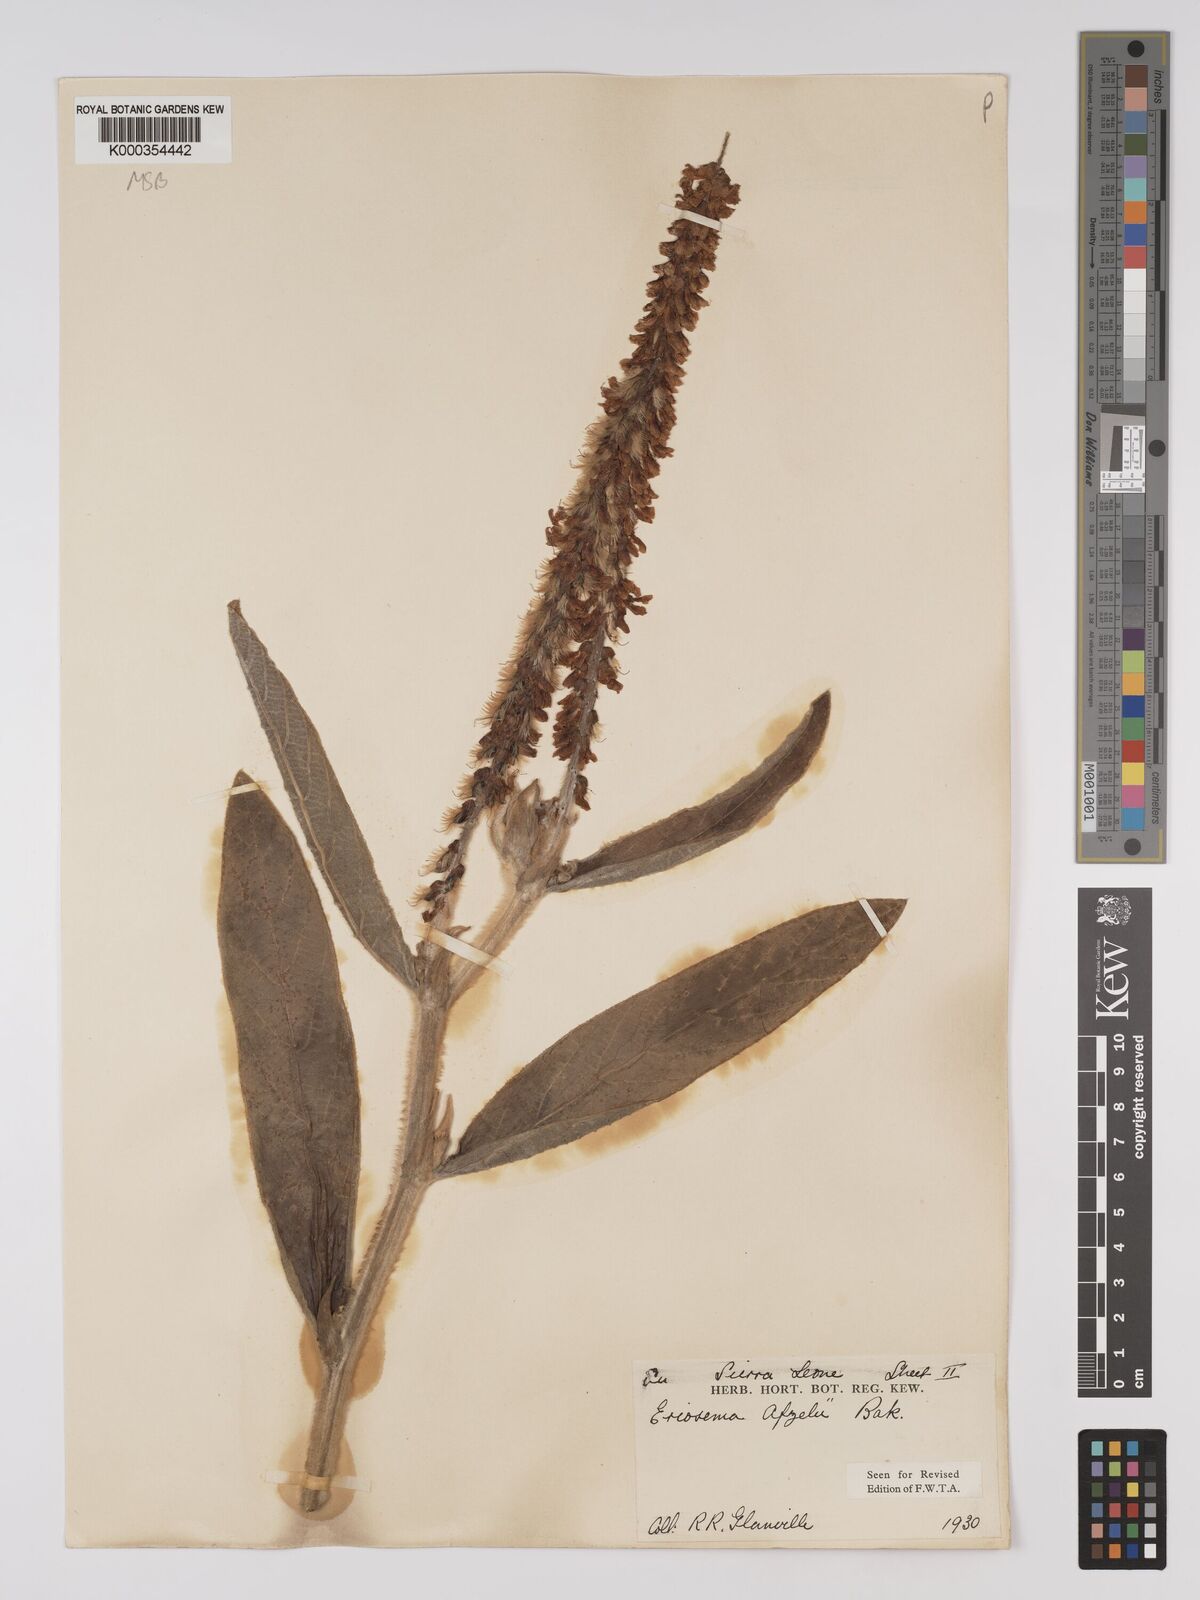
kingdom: Plantae
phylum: Tracheophyta
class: Magnoliopsida
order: Fabales
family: Fabaceae
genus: Eriosema
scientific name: Eriosema afzelii
